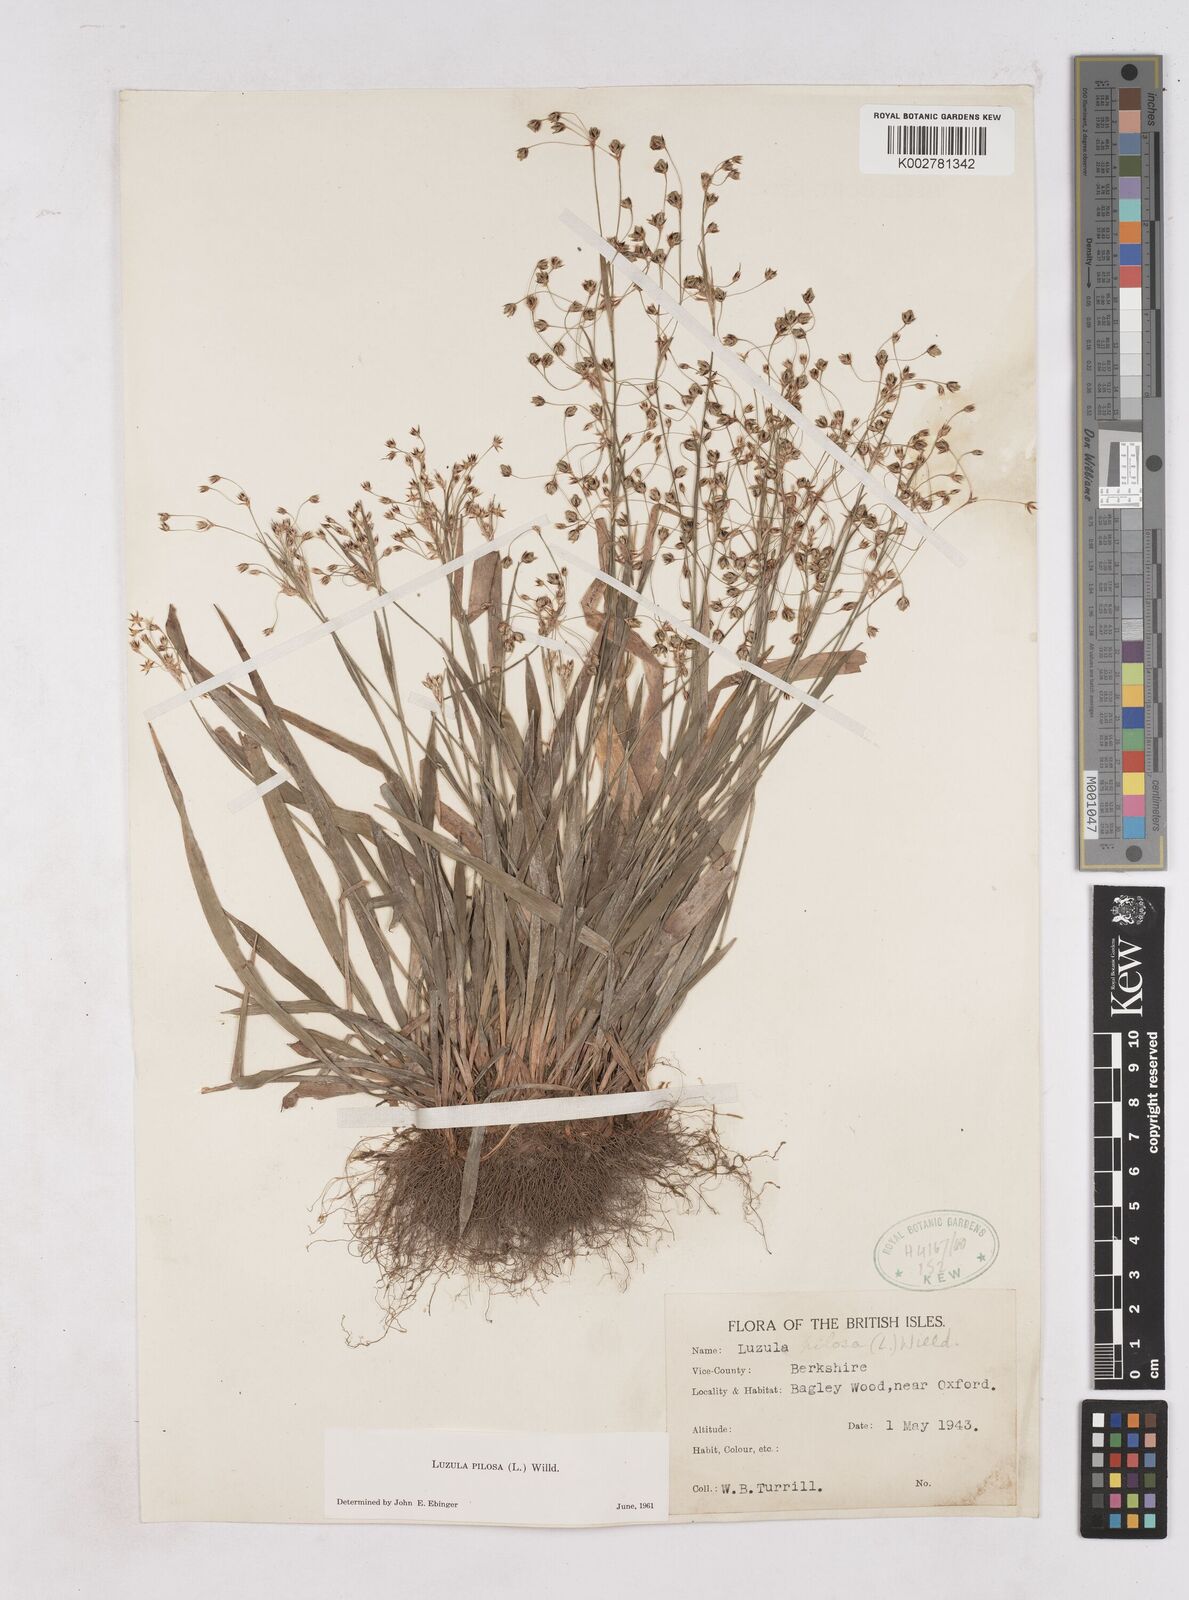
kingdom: Plantae
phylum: Tracheophyta
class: Liliopsida
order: Poales
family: Juncaceae
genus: Luzula
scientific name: Luzula pilosa
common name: Hairy wood-rush
